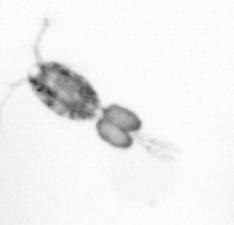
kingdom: Animalia
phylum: Arthropoda
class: Copepoda
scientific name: Copepoda
